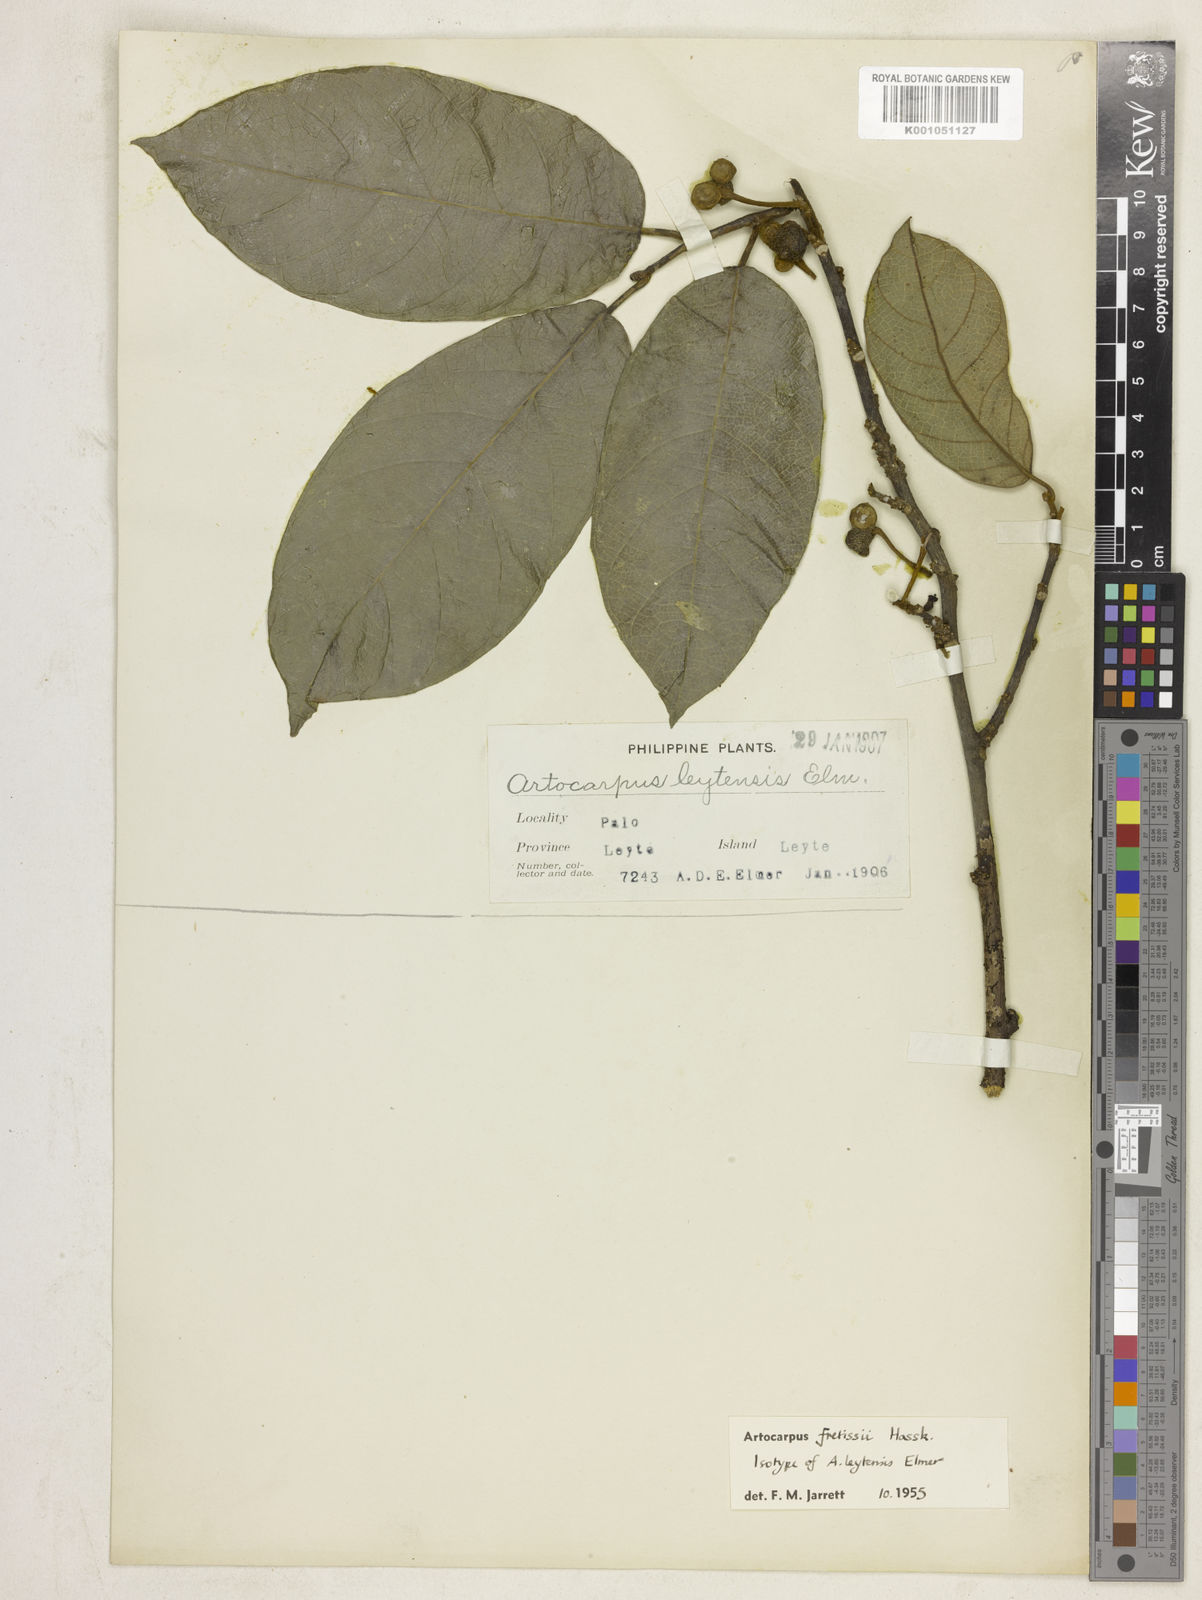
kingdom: Plantae
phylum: Tracheophyta
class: Magnoliopsida
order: Rosales
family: Moraceae
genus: Artocarpus
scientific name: Artocarpus lacucha
